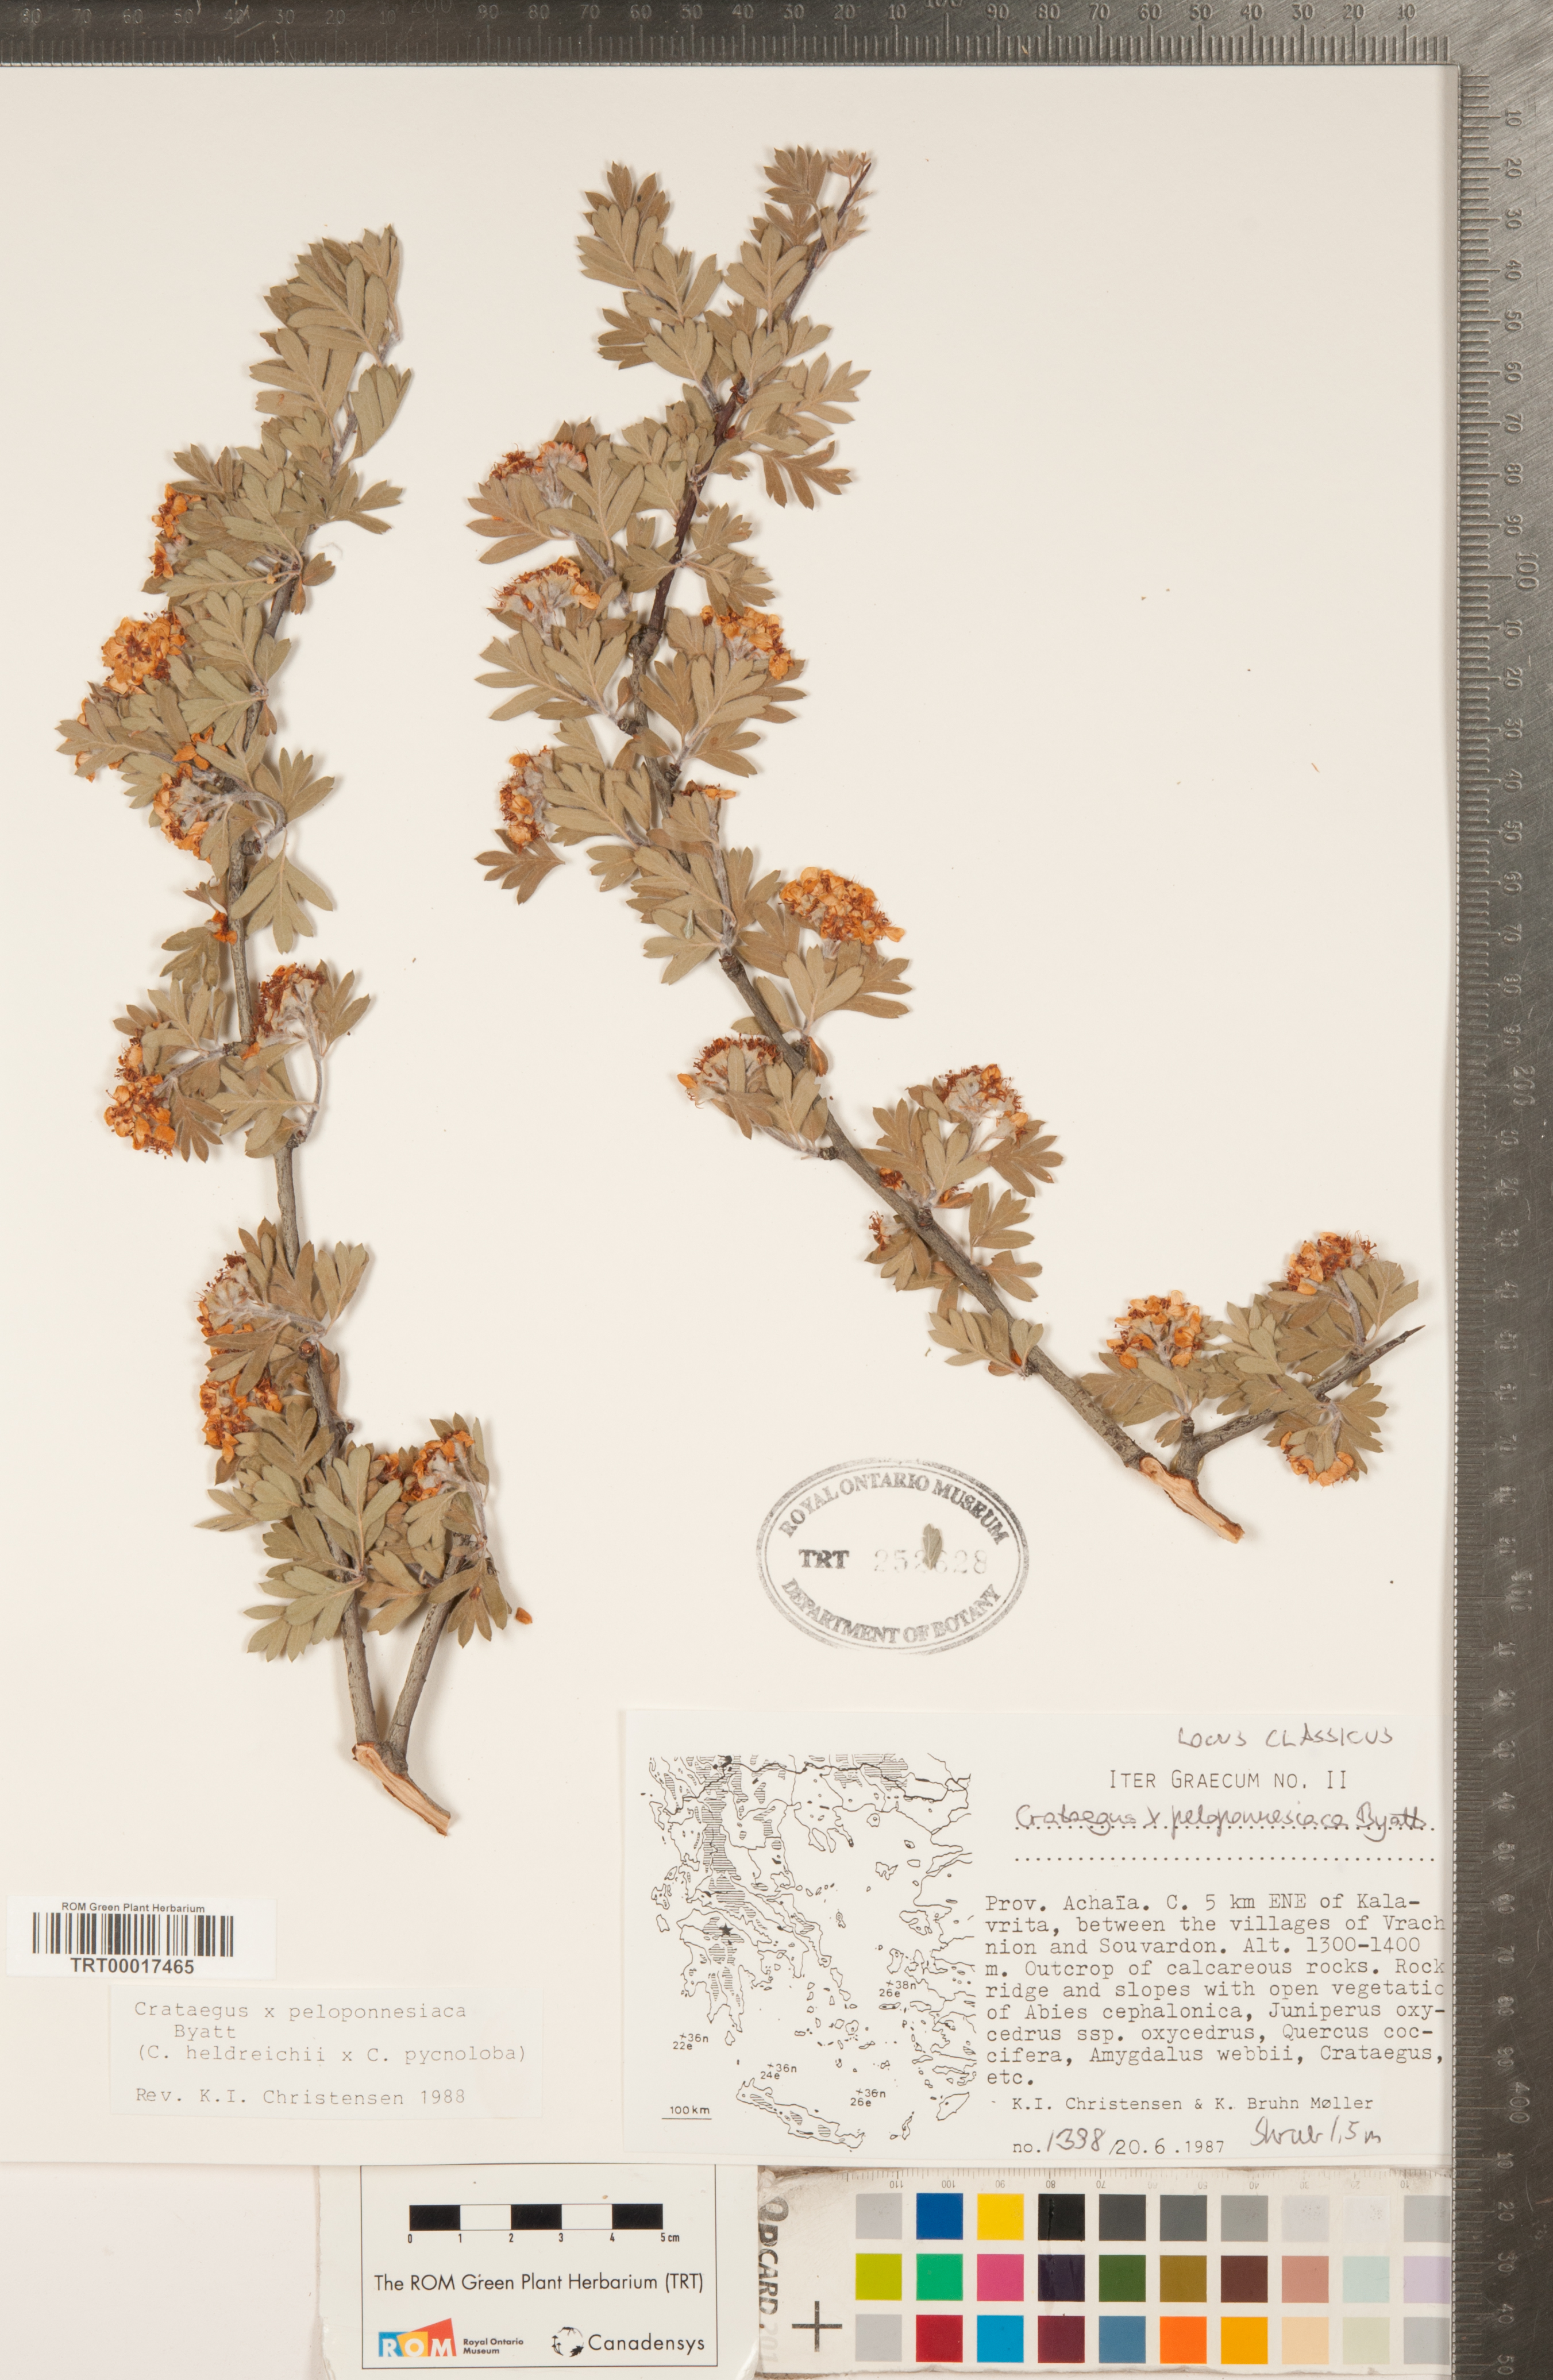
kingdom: Plantae
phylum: Tracheophyta
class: Magnoliopsida
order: Rosales
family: Rosaceae
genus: Crataegus
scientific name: Crataegus peloponnesiaca
